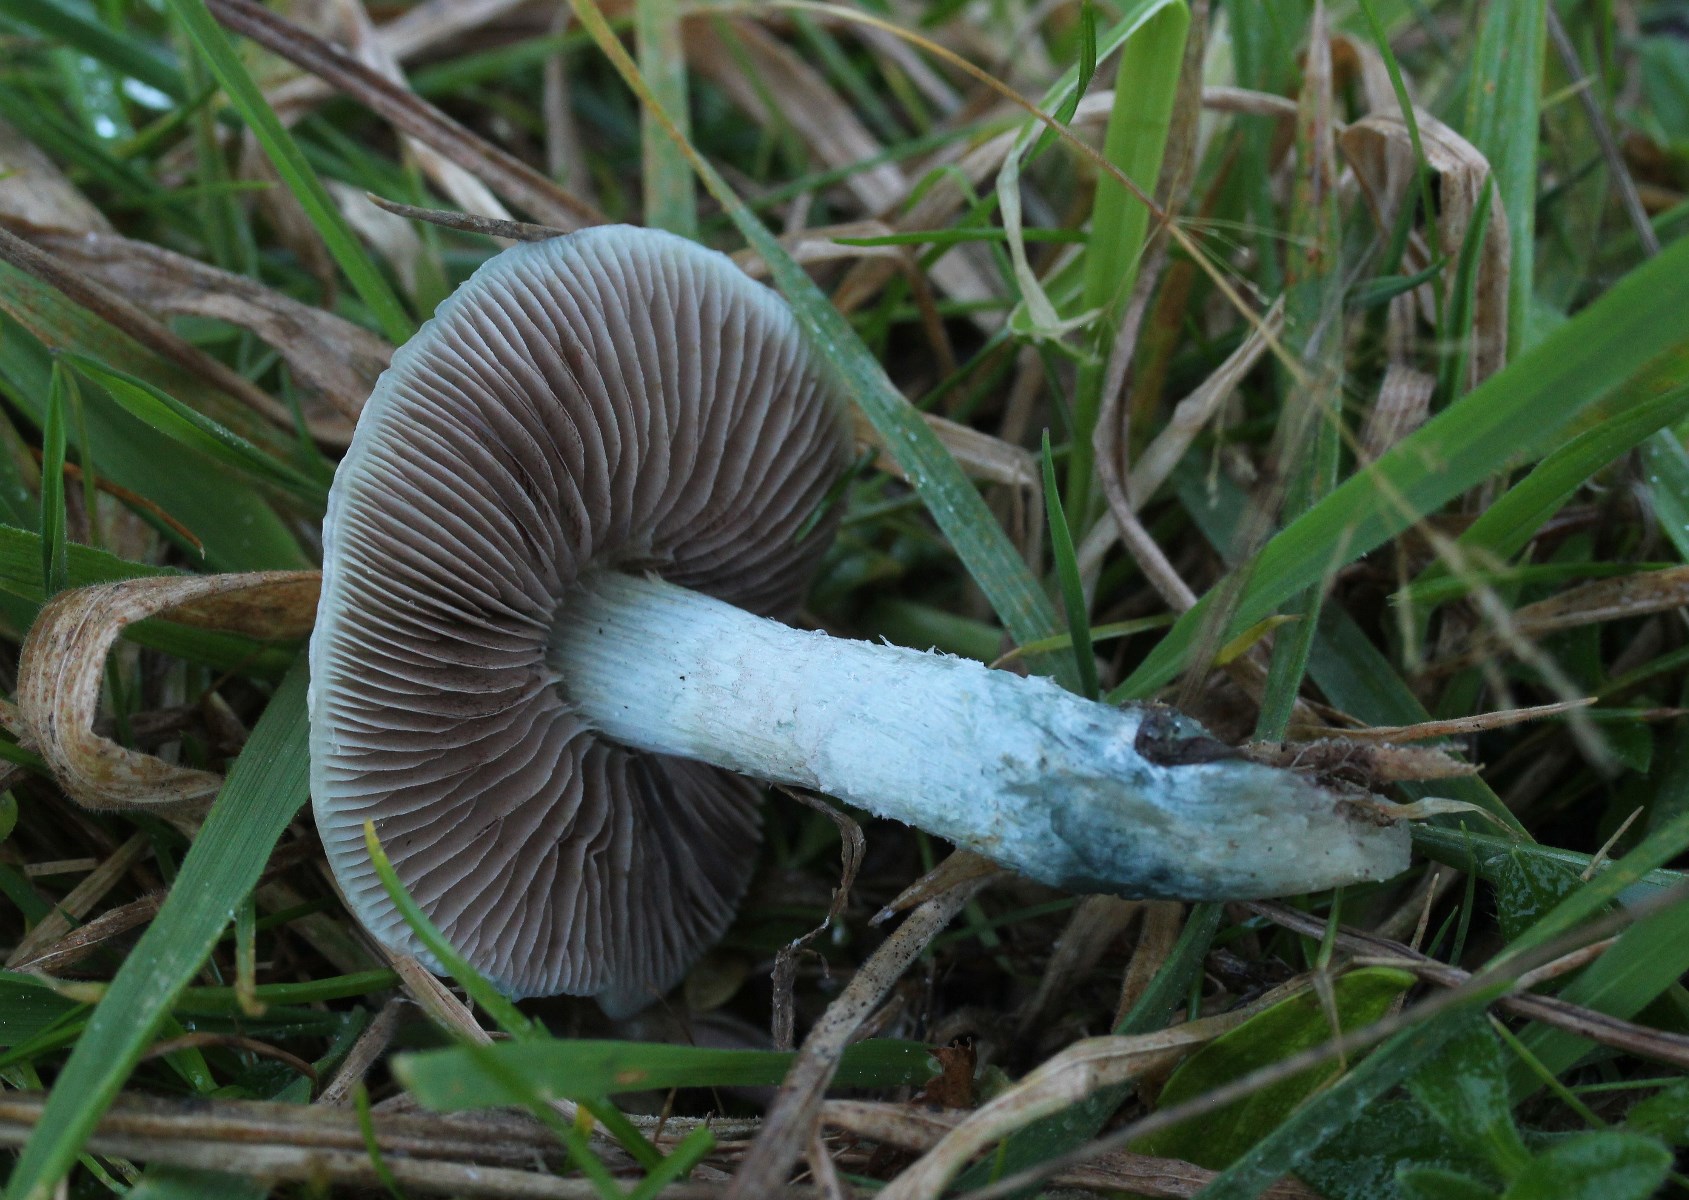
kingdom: Fungi
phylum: Basidiomycota
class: Agaricomycetes
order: Agaricales
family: Strophariaceae
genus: Stropharia
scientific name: Stropharia cyanea
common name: blågrøn bredblad
